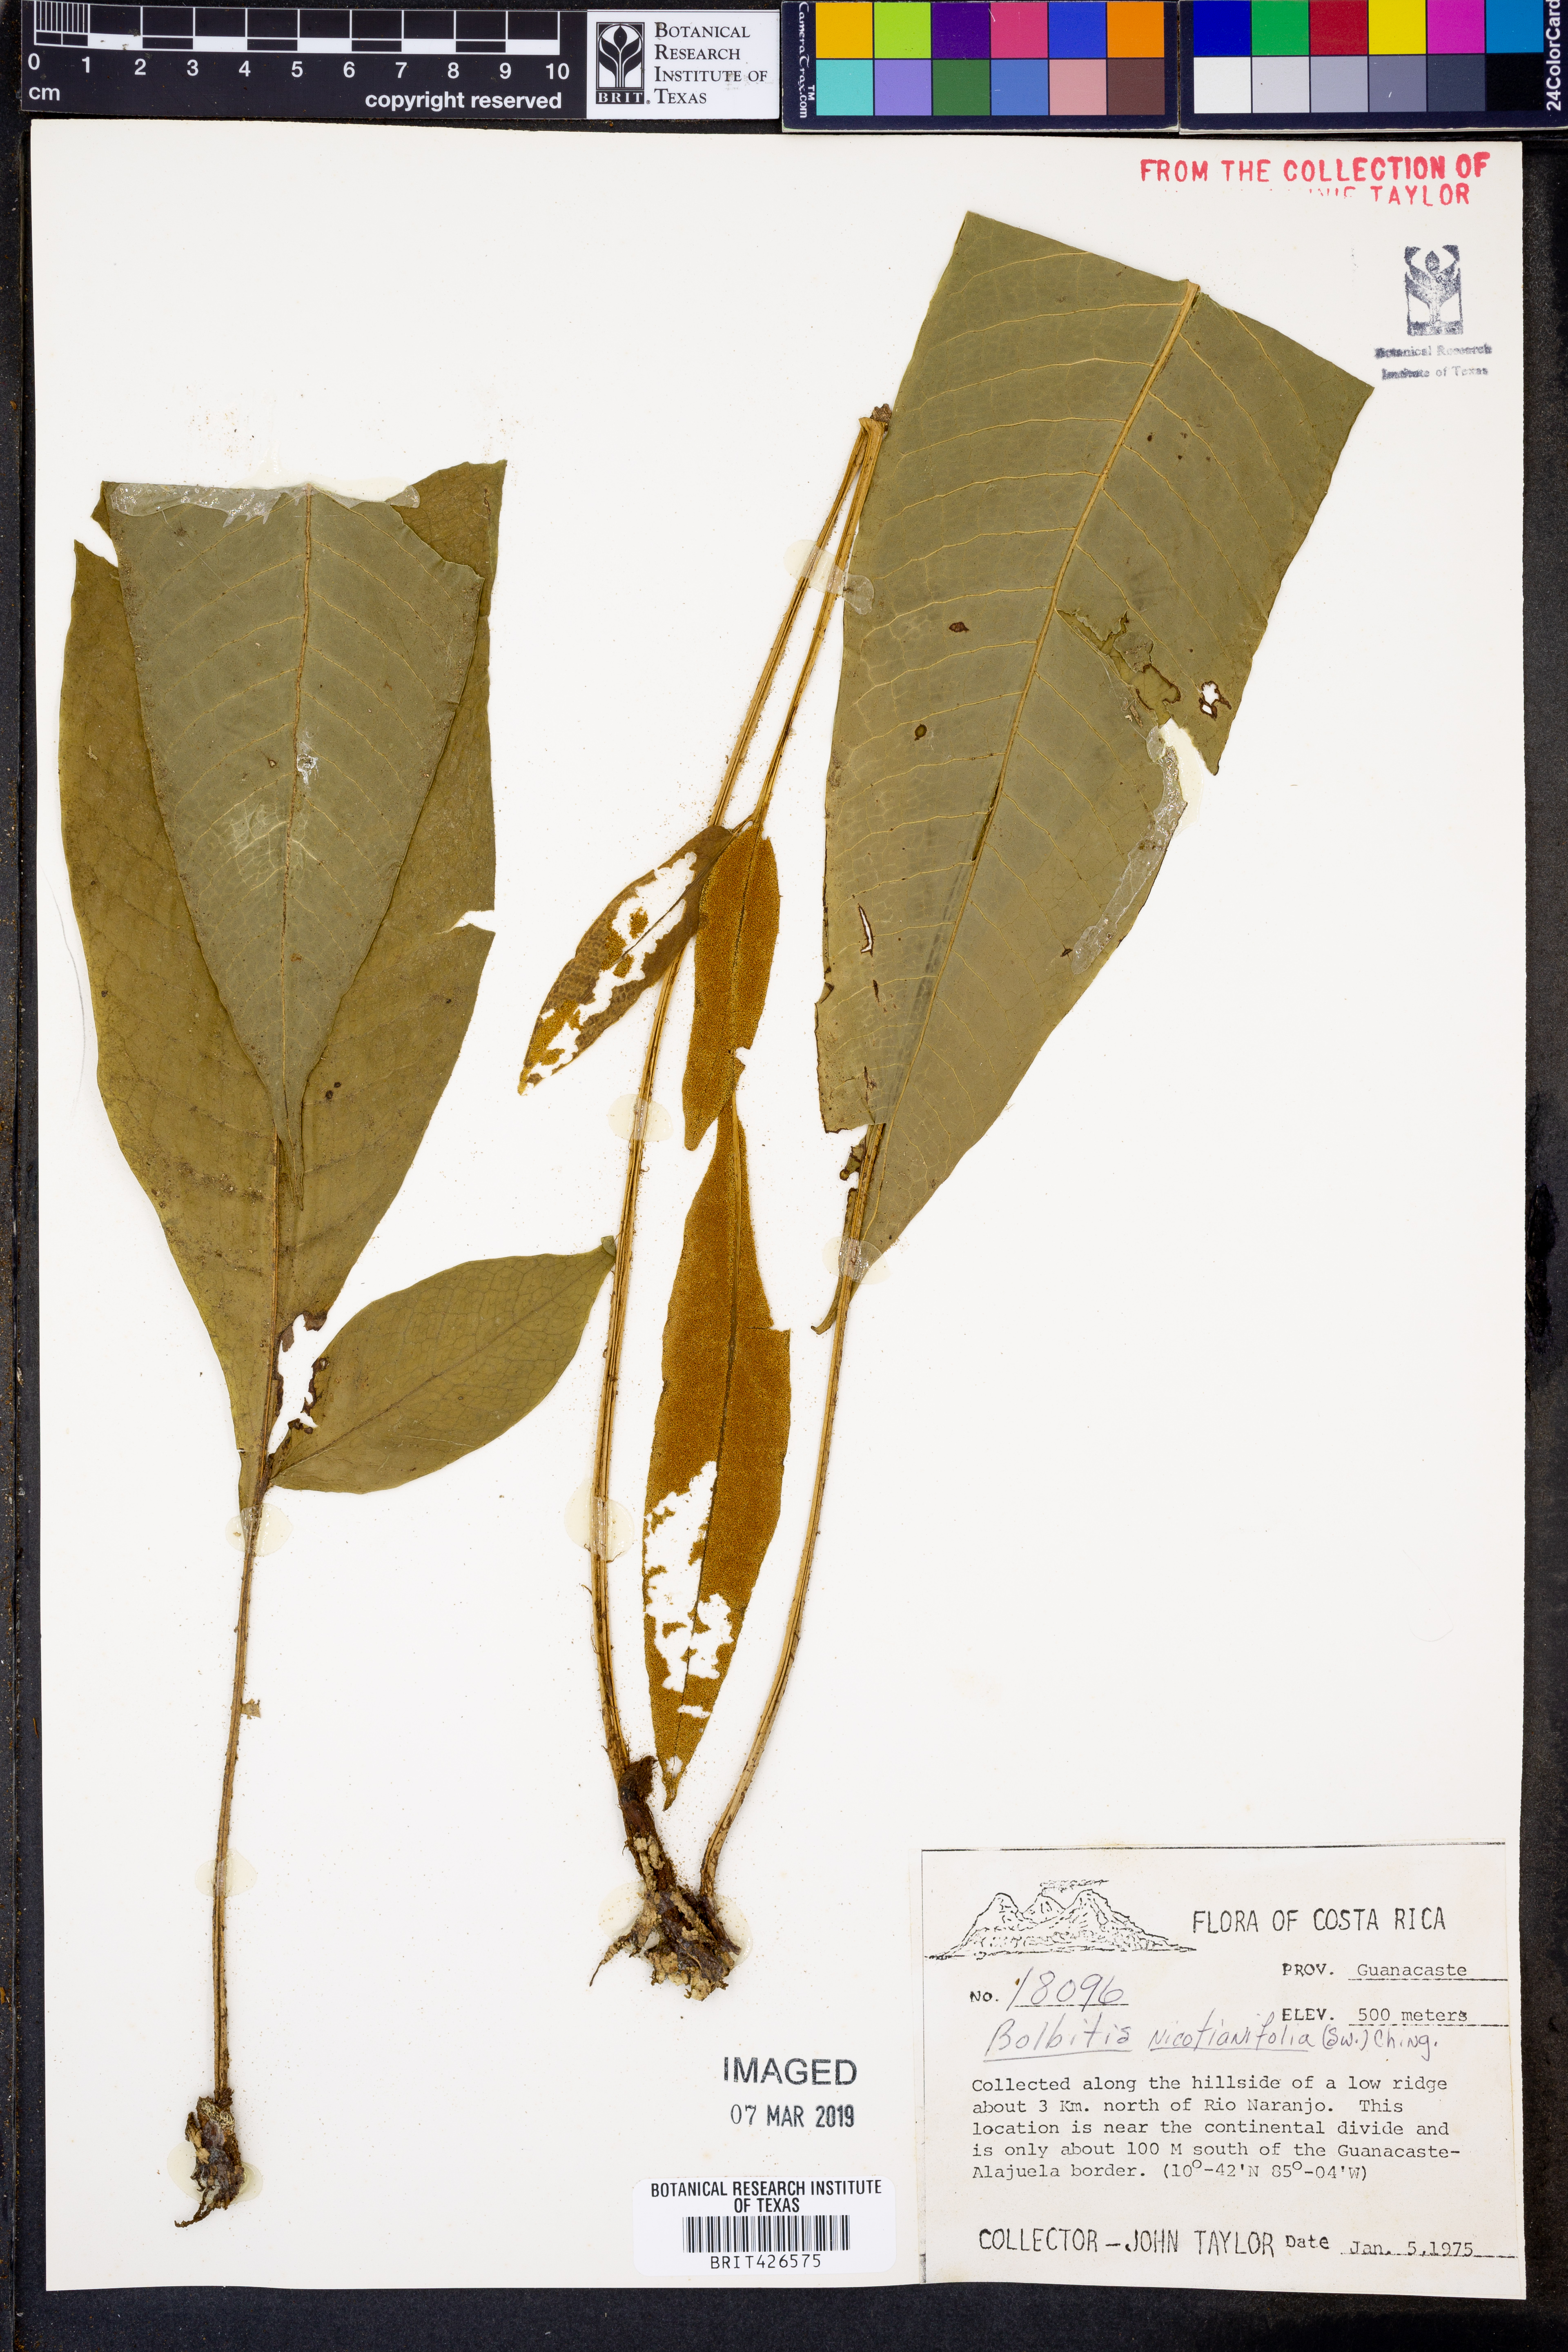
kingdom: Plantae
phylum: Tracheophyta
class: Polypodiopsida
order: Polypodiales
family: Dryopteridaceae
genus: Mickelia
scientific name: Mickelia nicotianifolia
